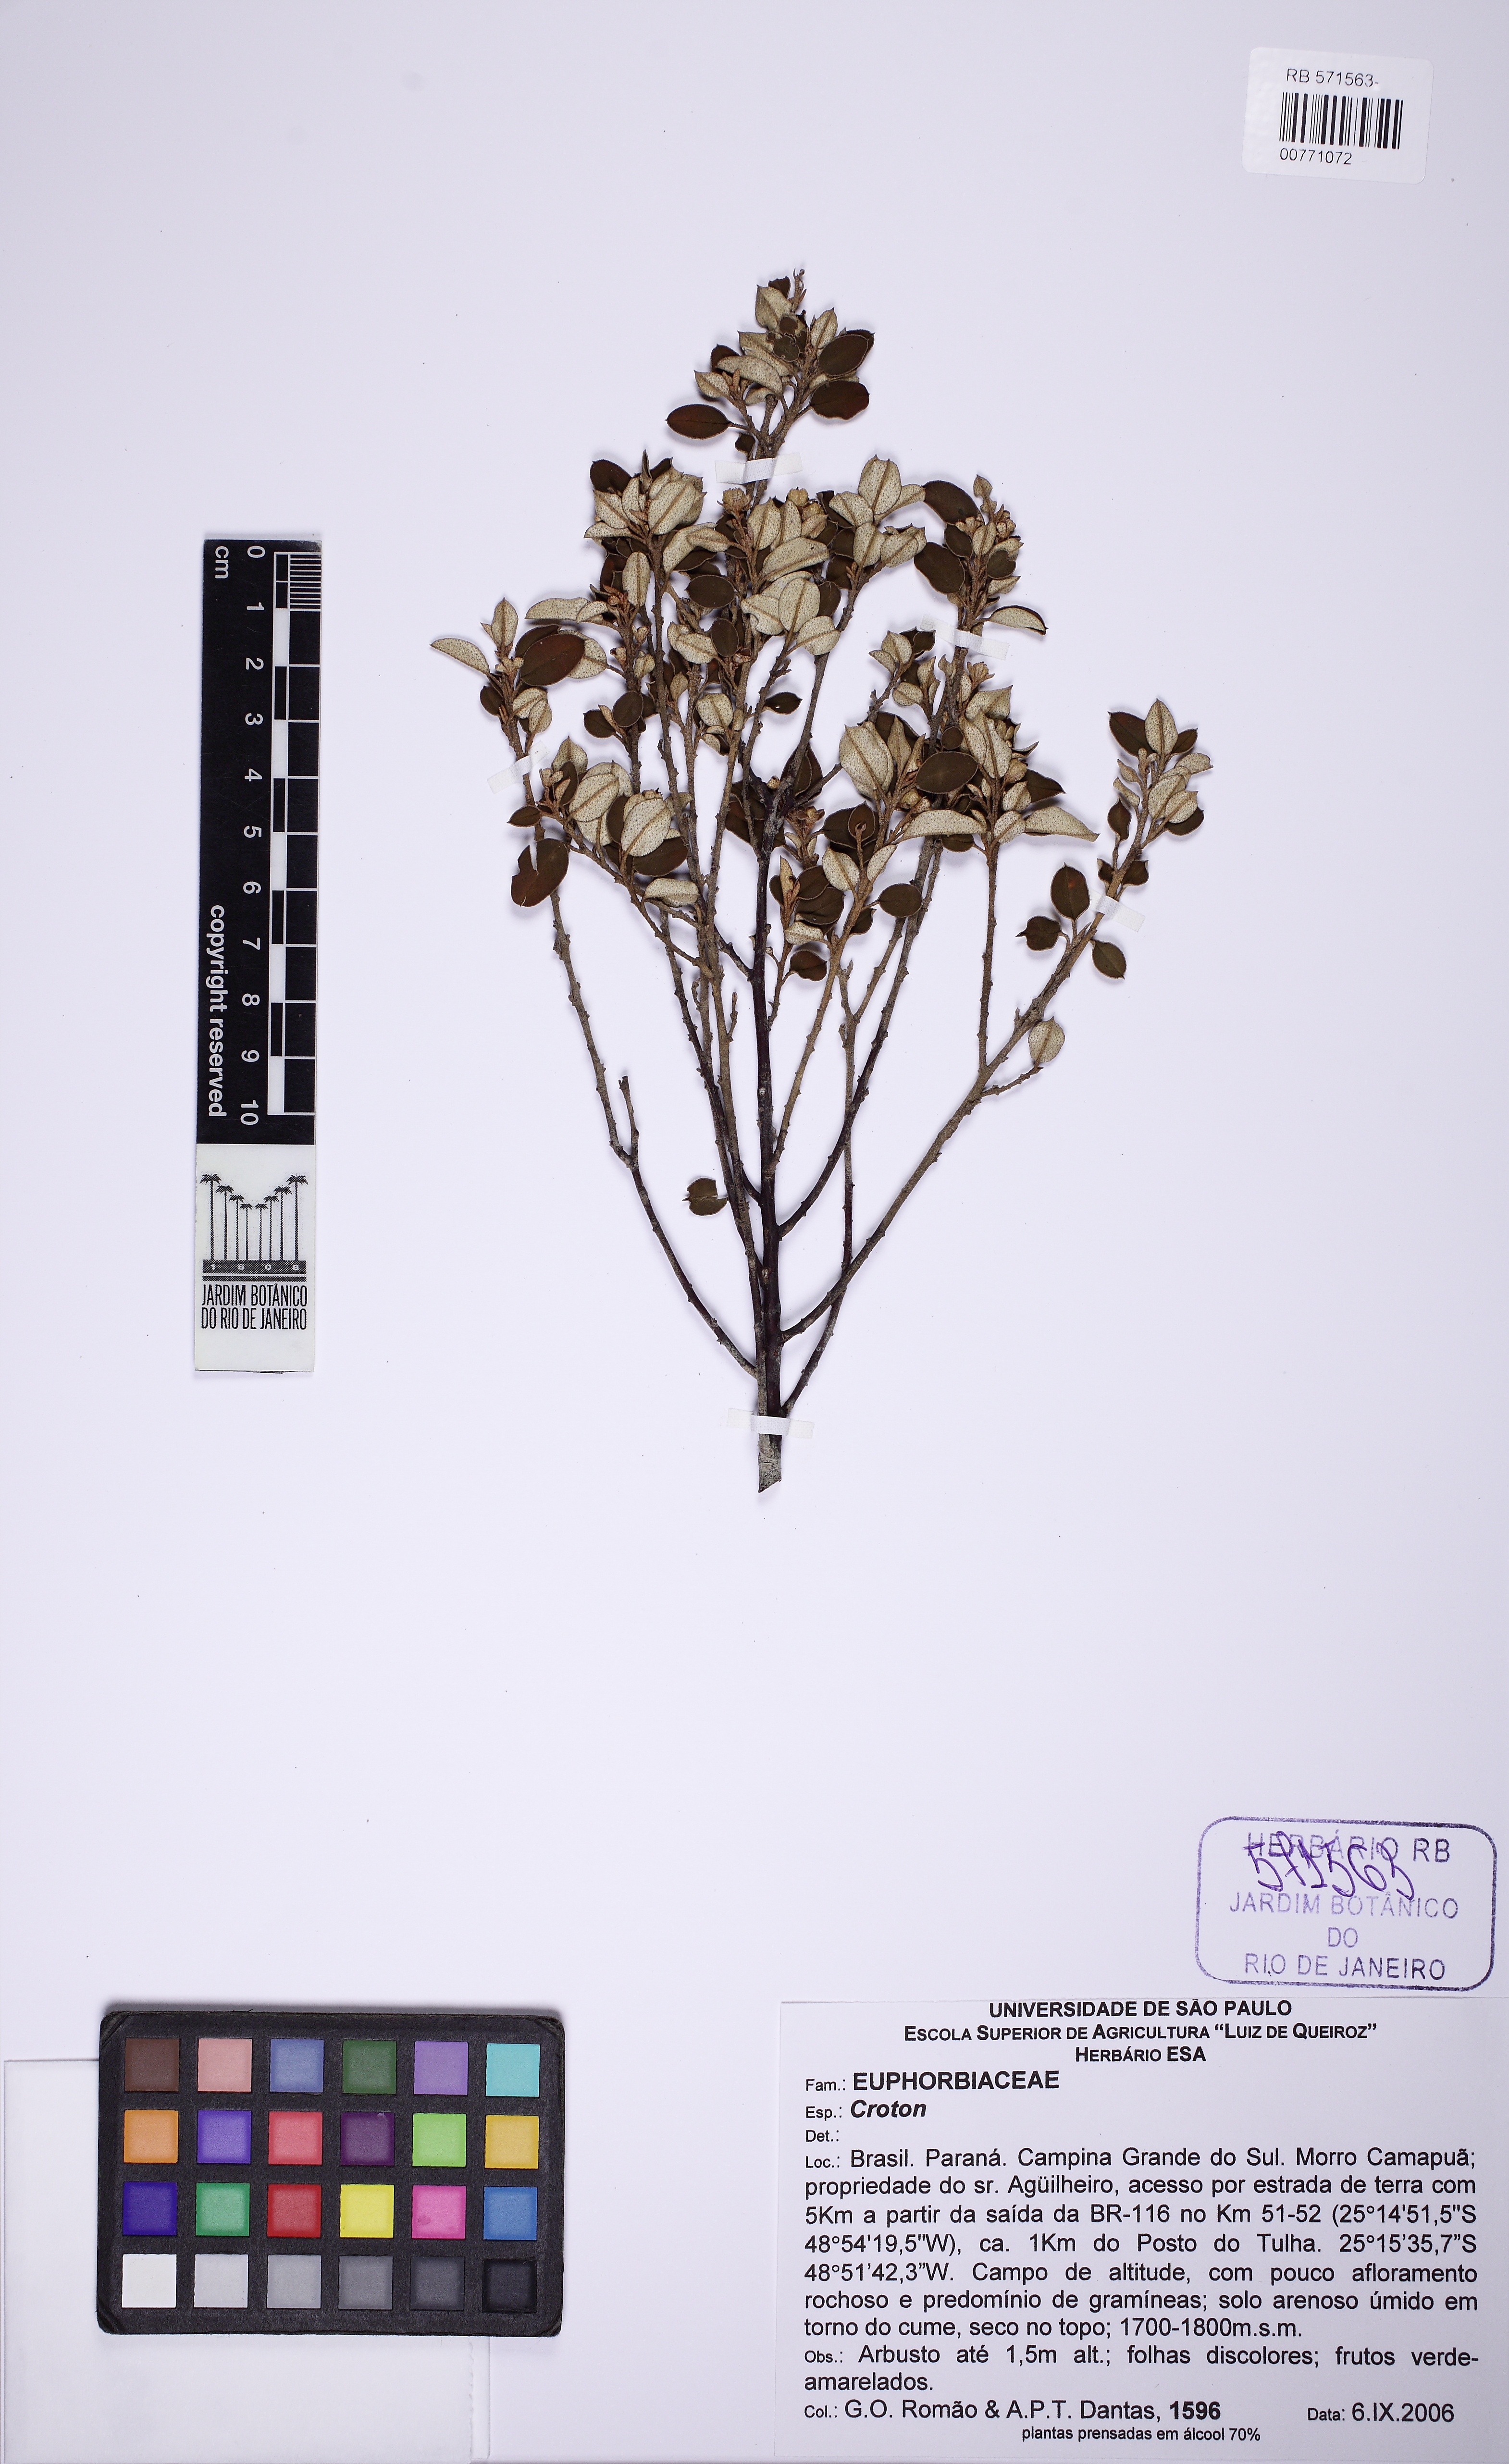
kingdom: Plantae
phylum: Tracheophyta
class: Magnoliopsida
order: Malpighiales
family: Euphorbiaceae
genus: Croton
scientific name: Croton splendidus
